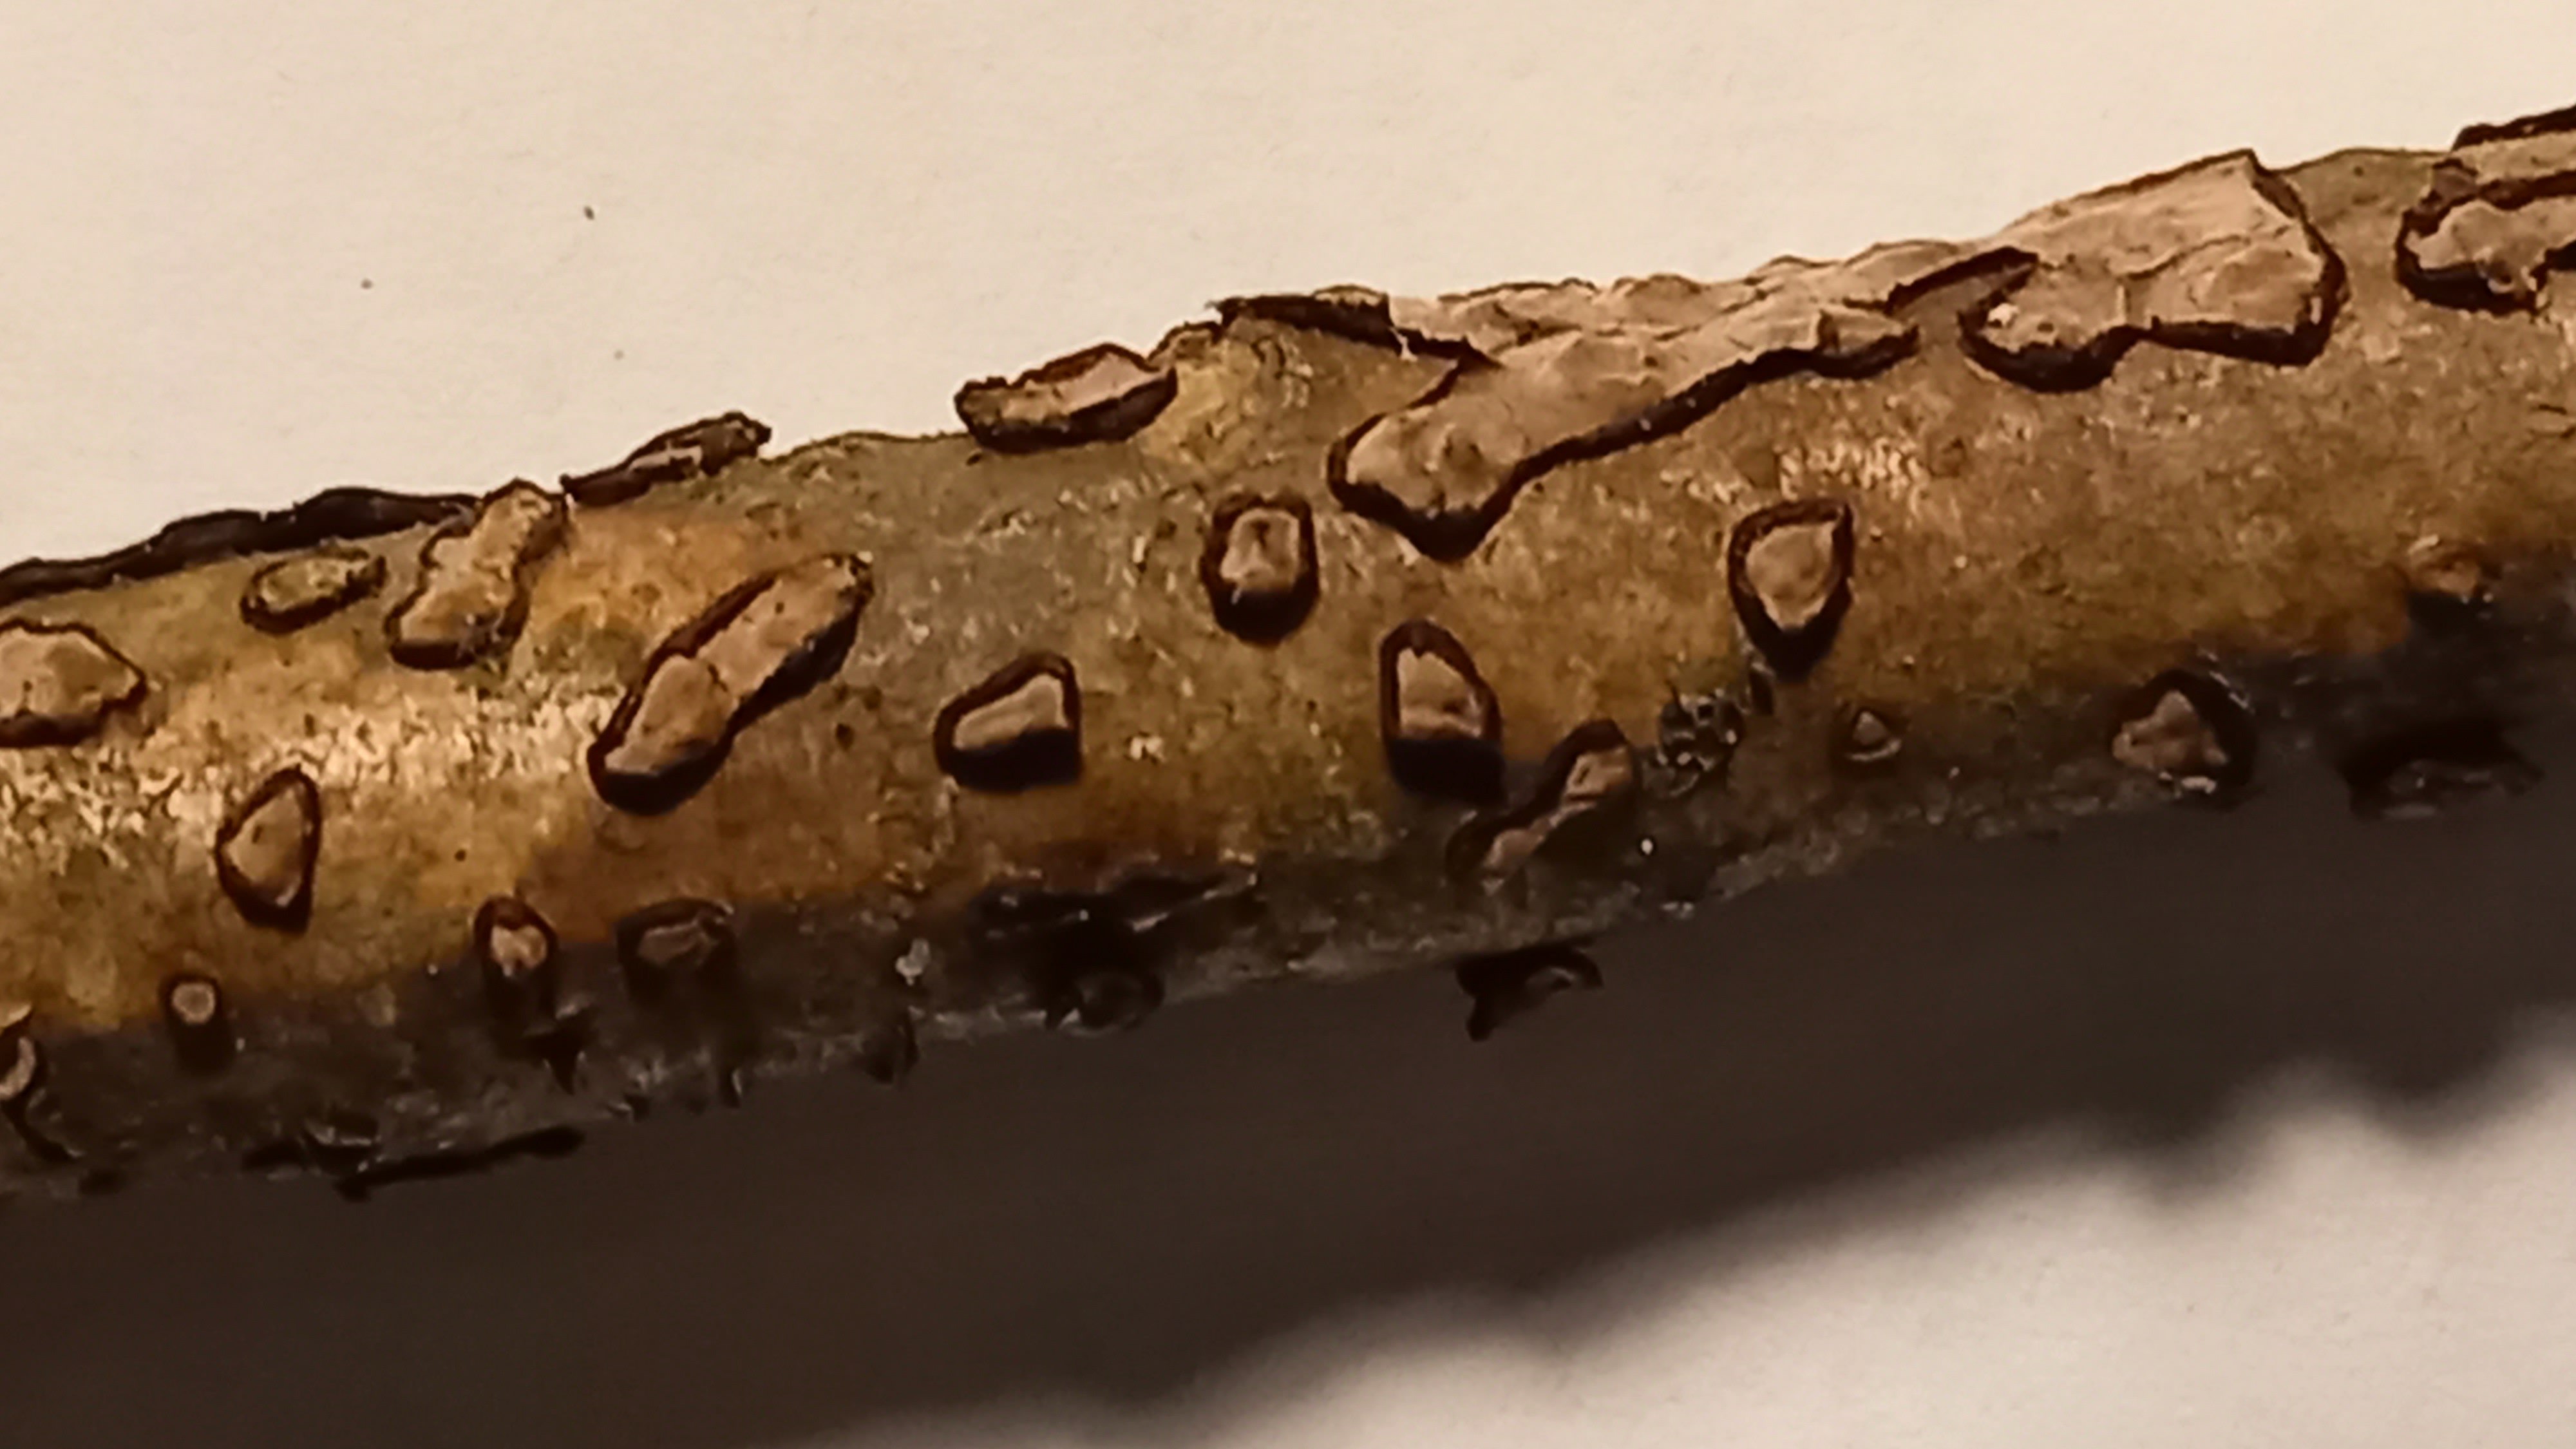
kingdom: Fungi
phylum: Basidiomycota
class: Agaricomycetes
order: Russulales
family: Peniophoraceae
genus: Peniophora
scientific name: Peniophora quercina
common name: ege-voksskind
